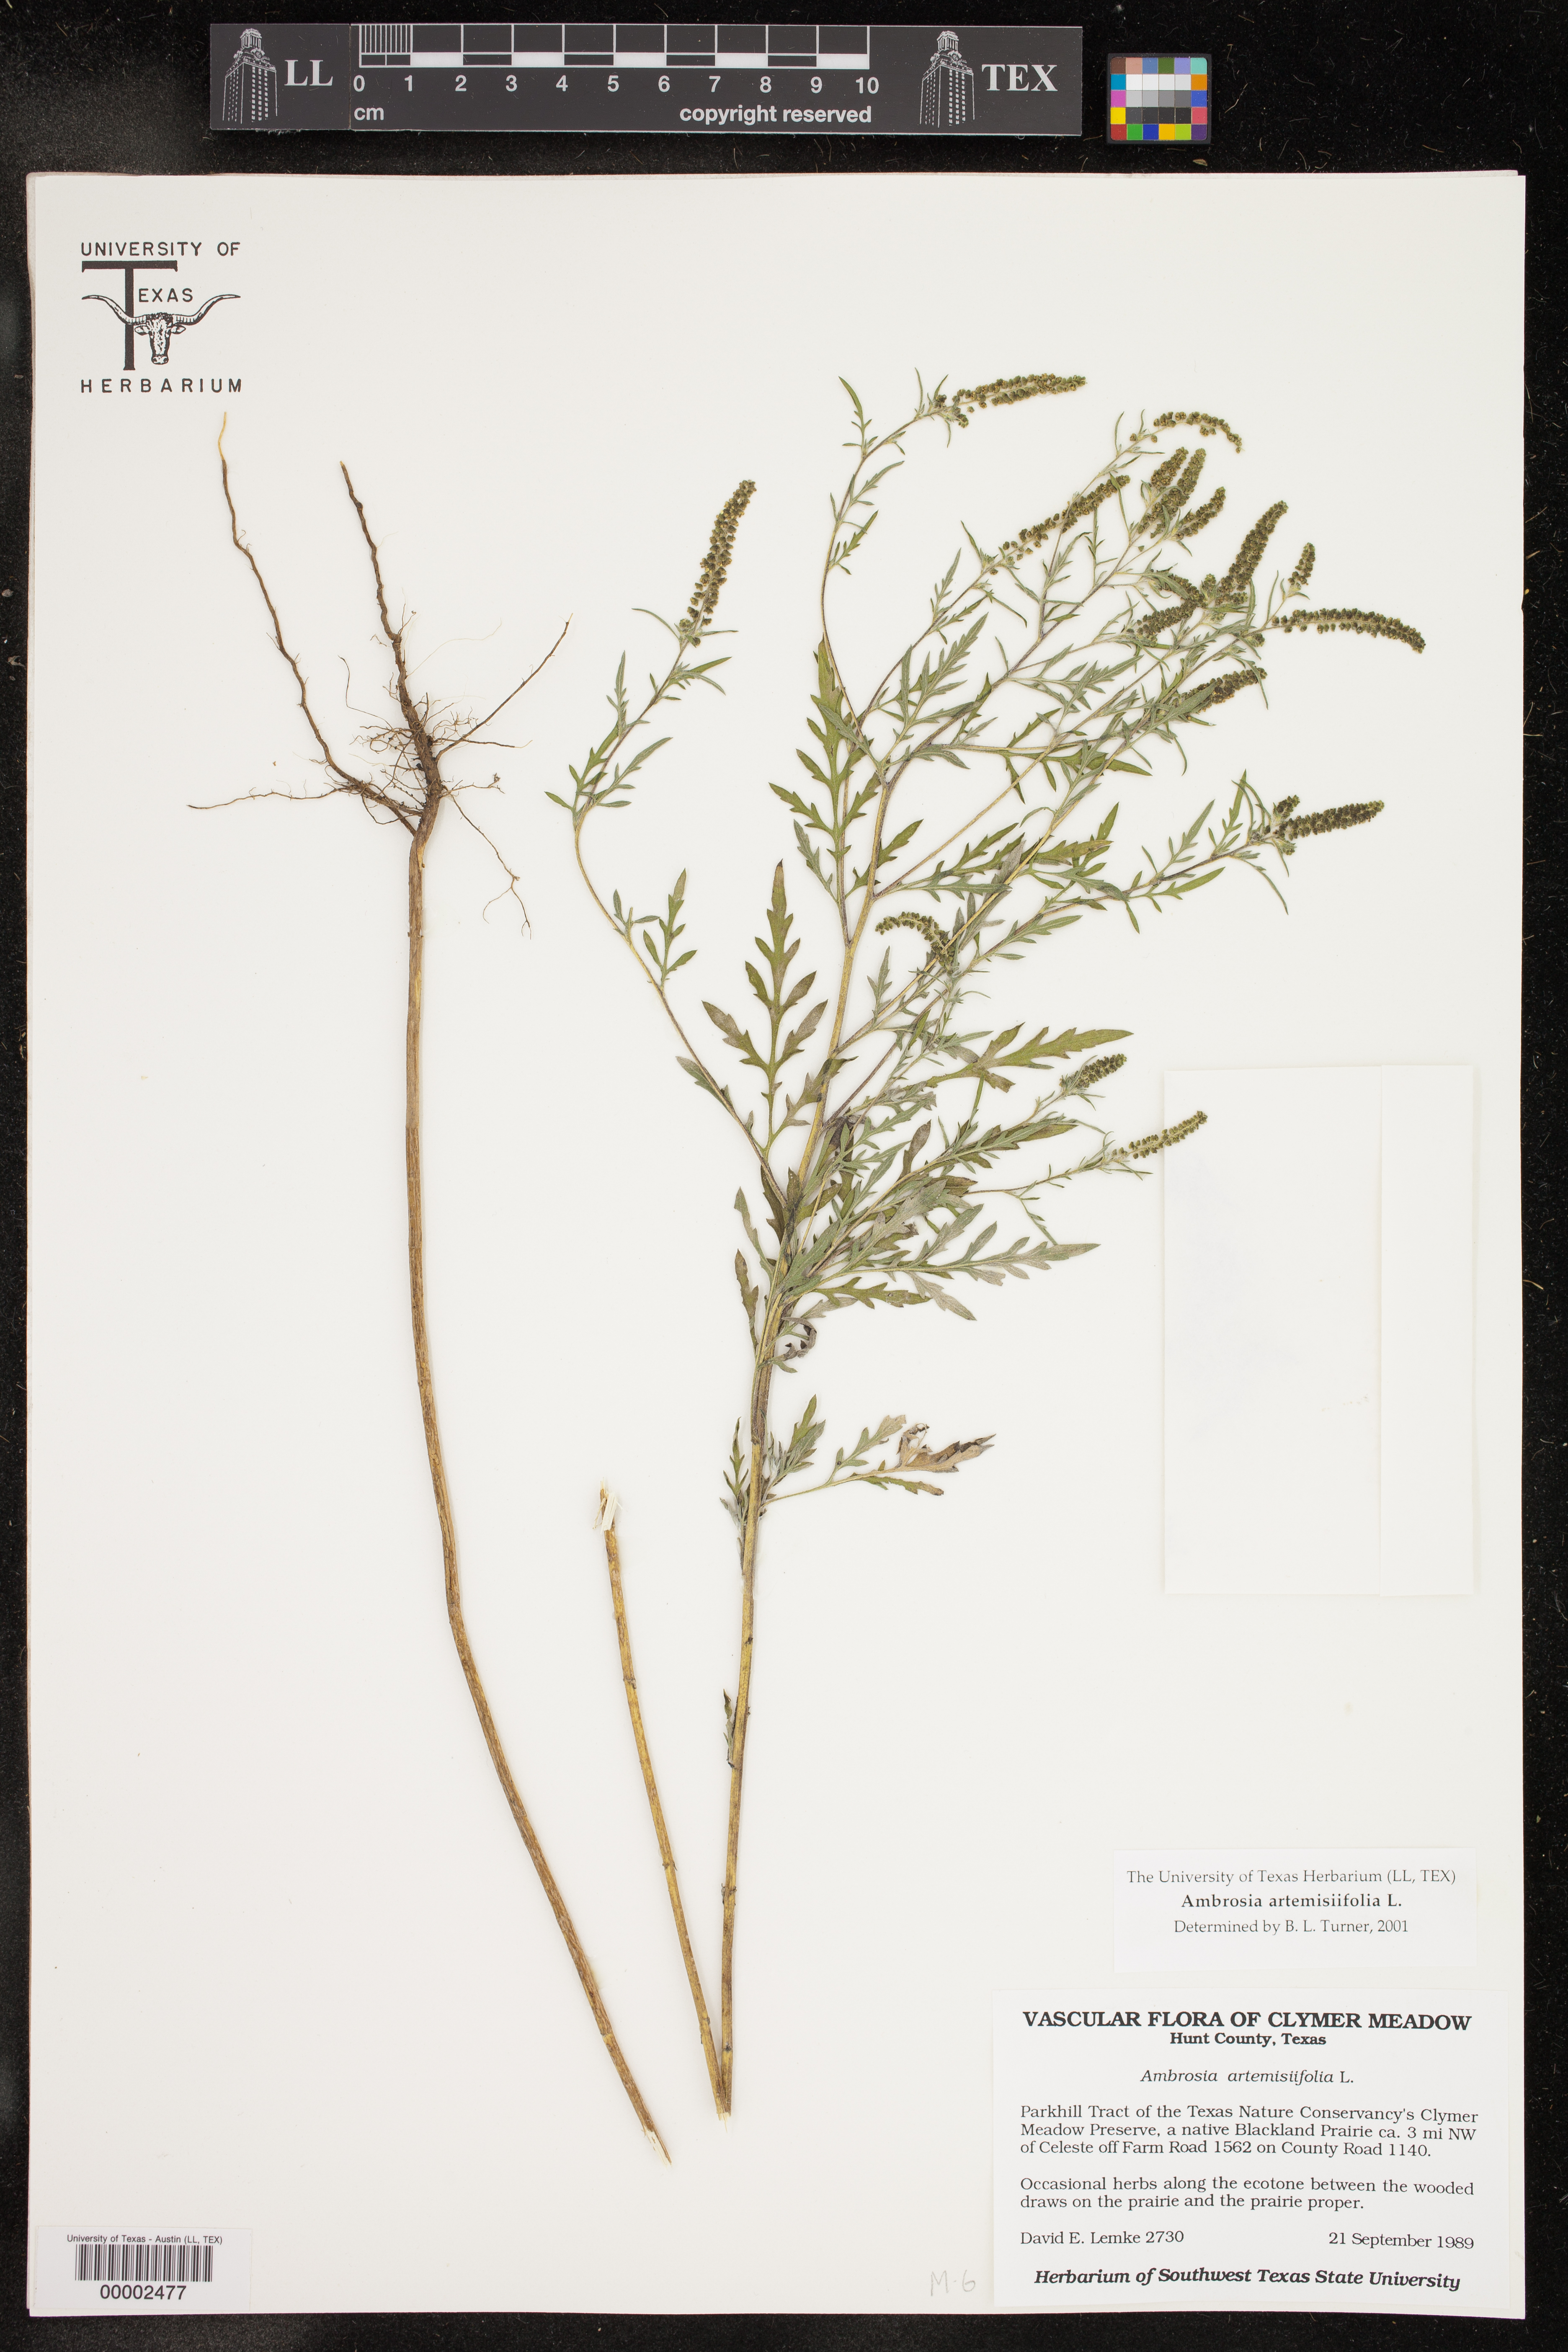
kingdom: Plantae
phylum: Tracheophyta
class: Magnoliopsida
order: Asterales
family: Asteraceae
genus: Ambrosia
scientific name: Ambrosia artemisiifolia
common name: Annual ragweed
